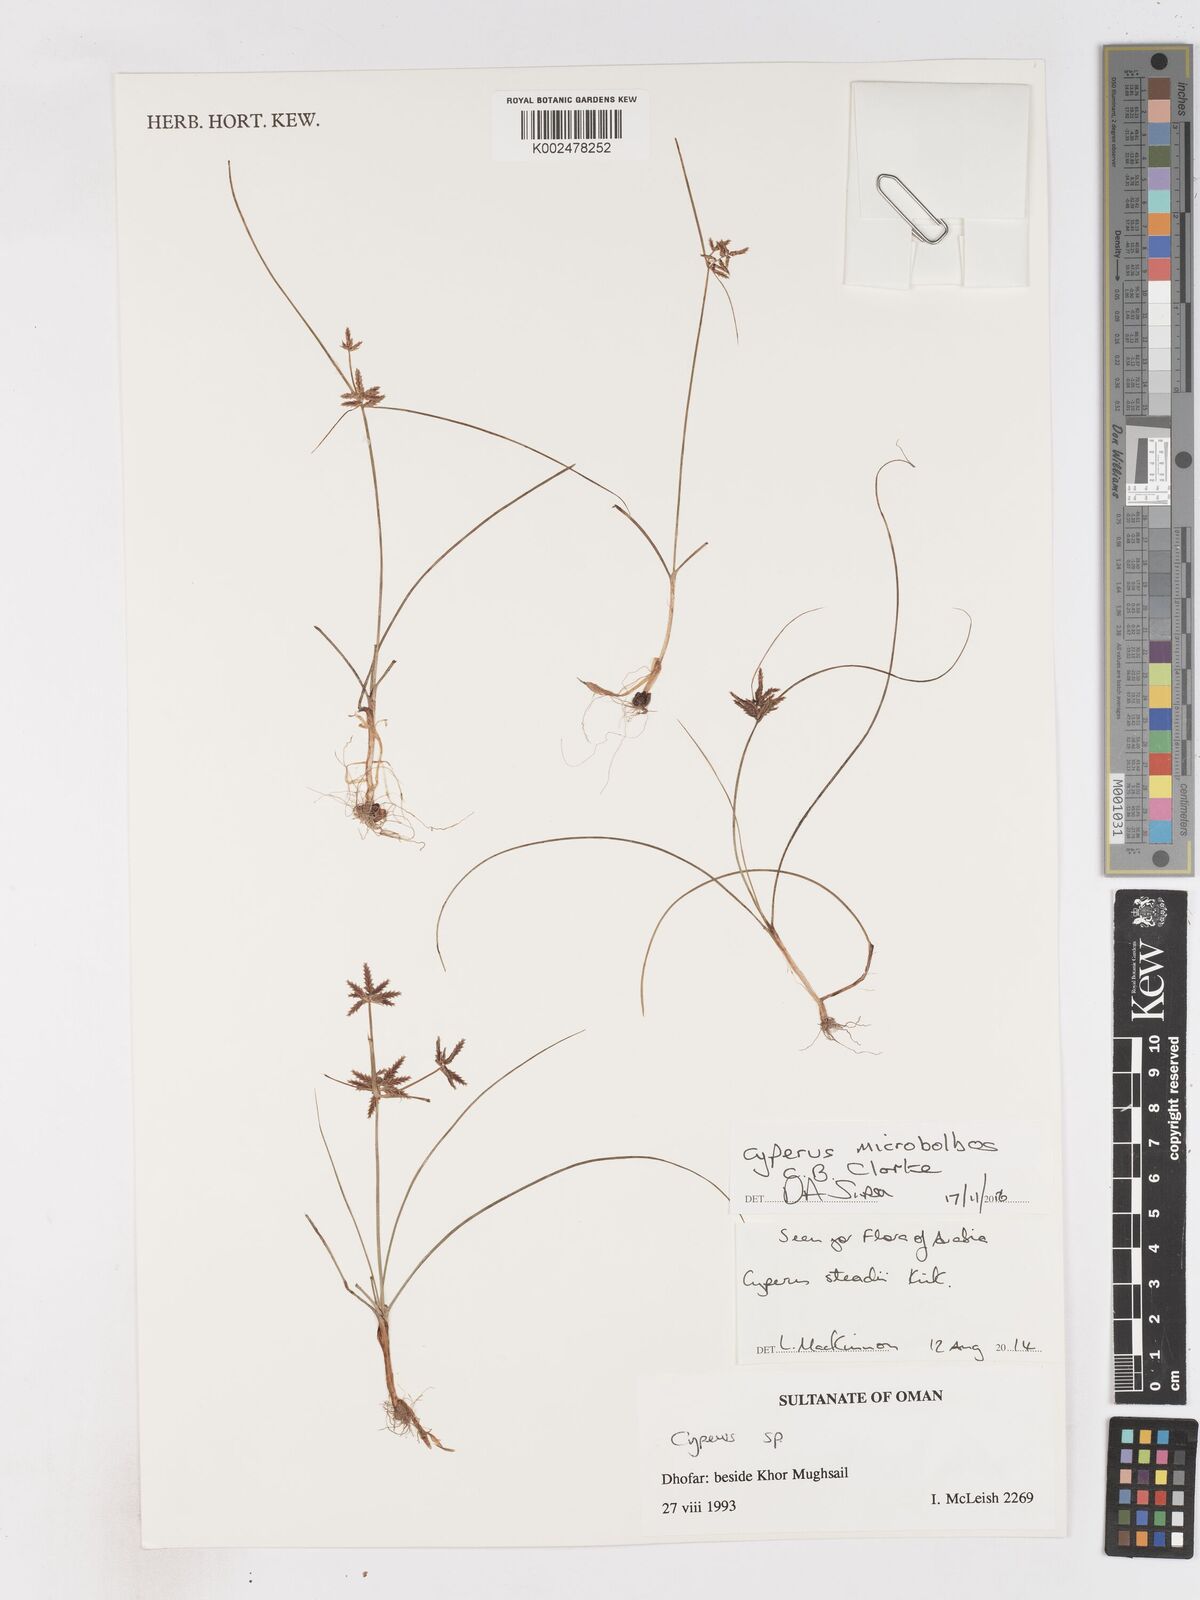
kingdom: Plantae
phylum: Tracheophyta
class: Liliopsida
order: Poales
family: Cyperaceae
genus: Cyperus
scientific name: Cyperus microbolbos
